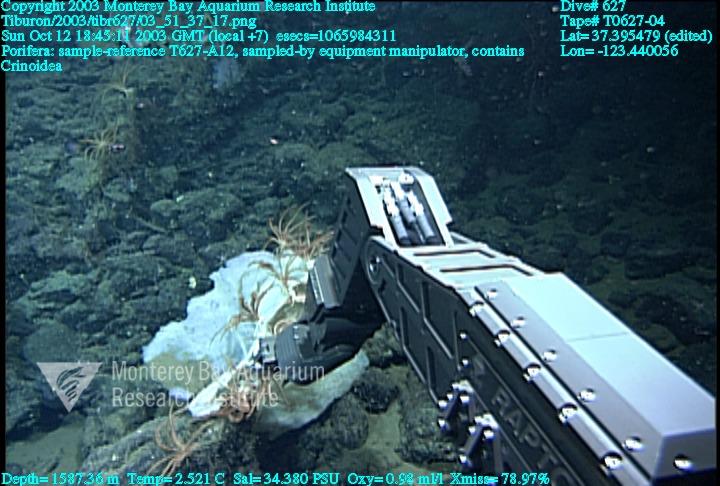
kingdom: Animalia
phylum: Porifera
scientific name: Porifera
